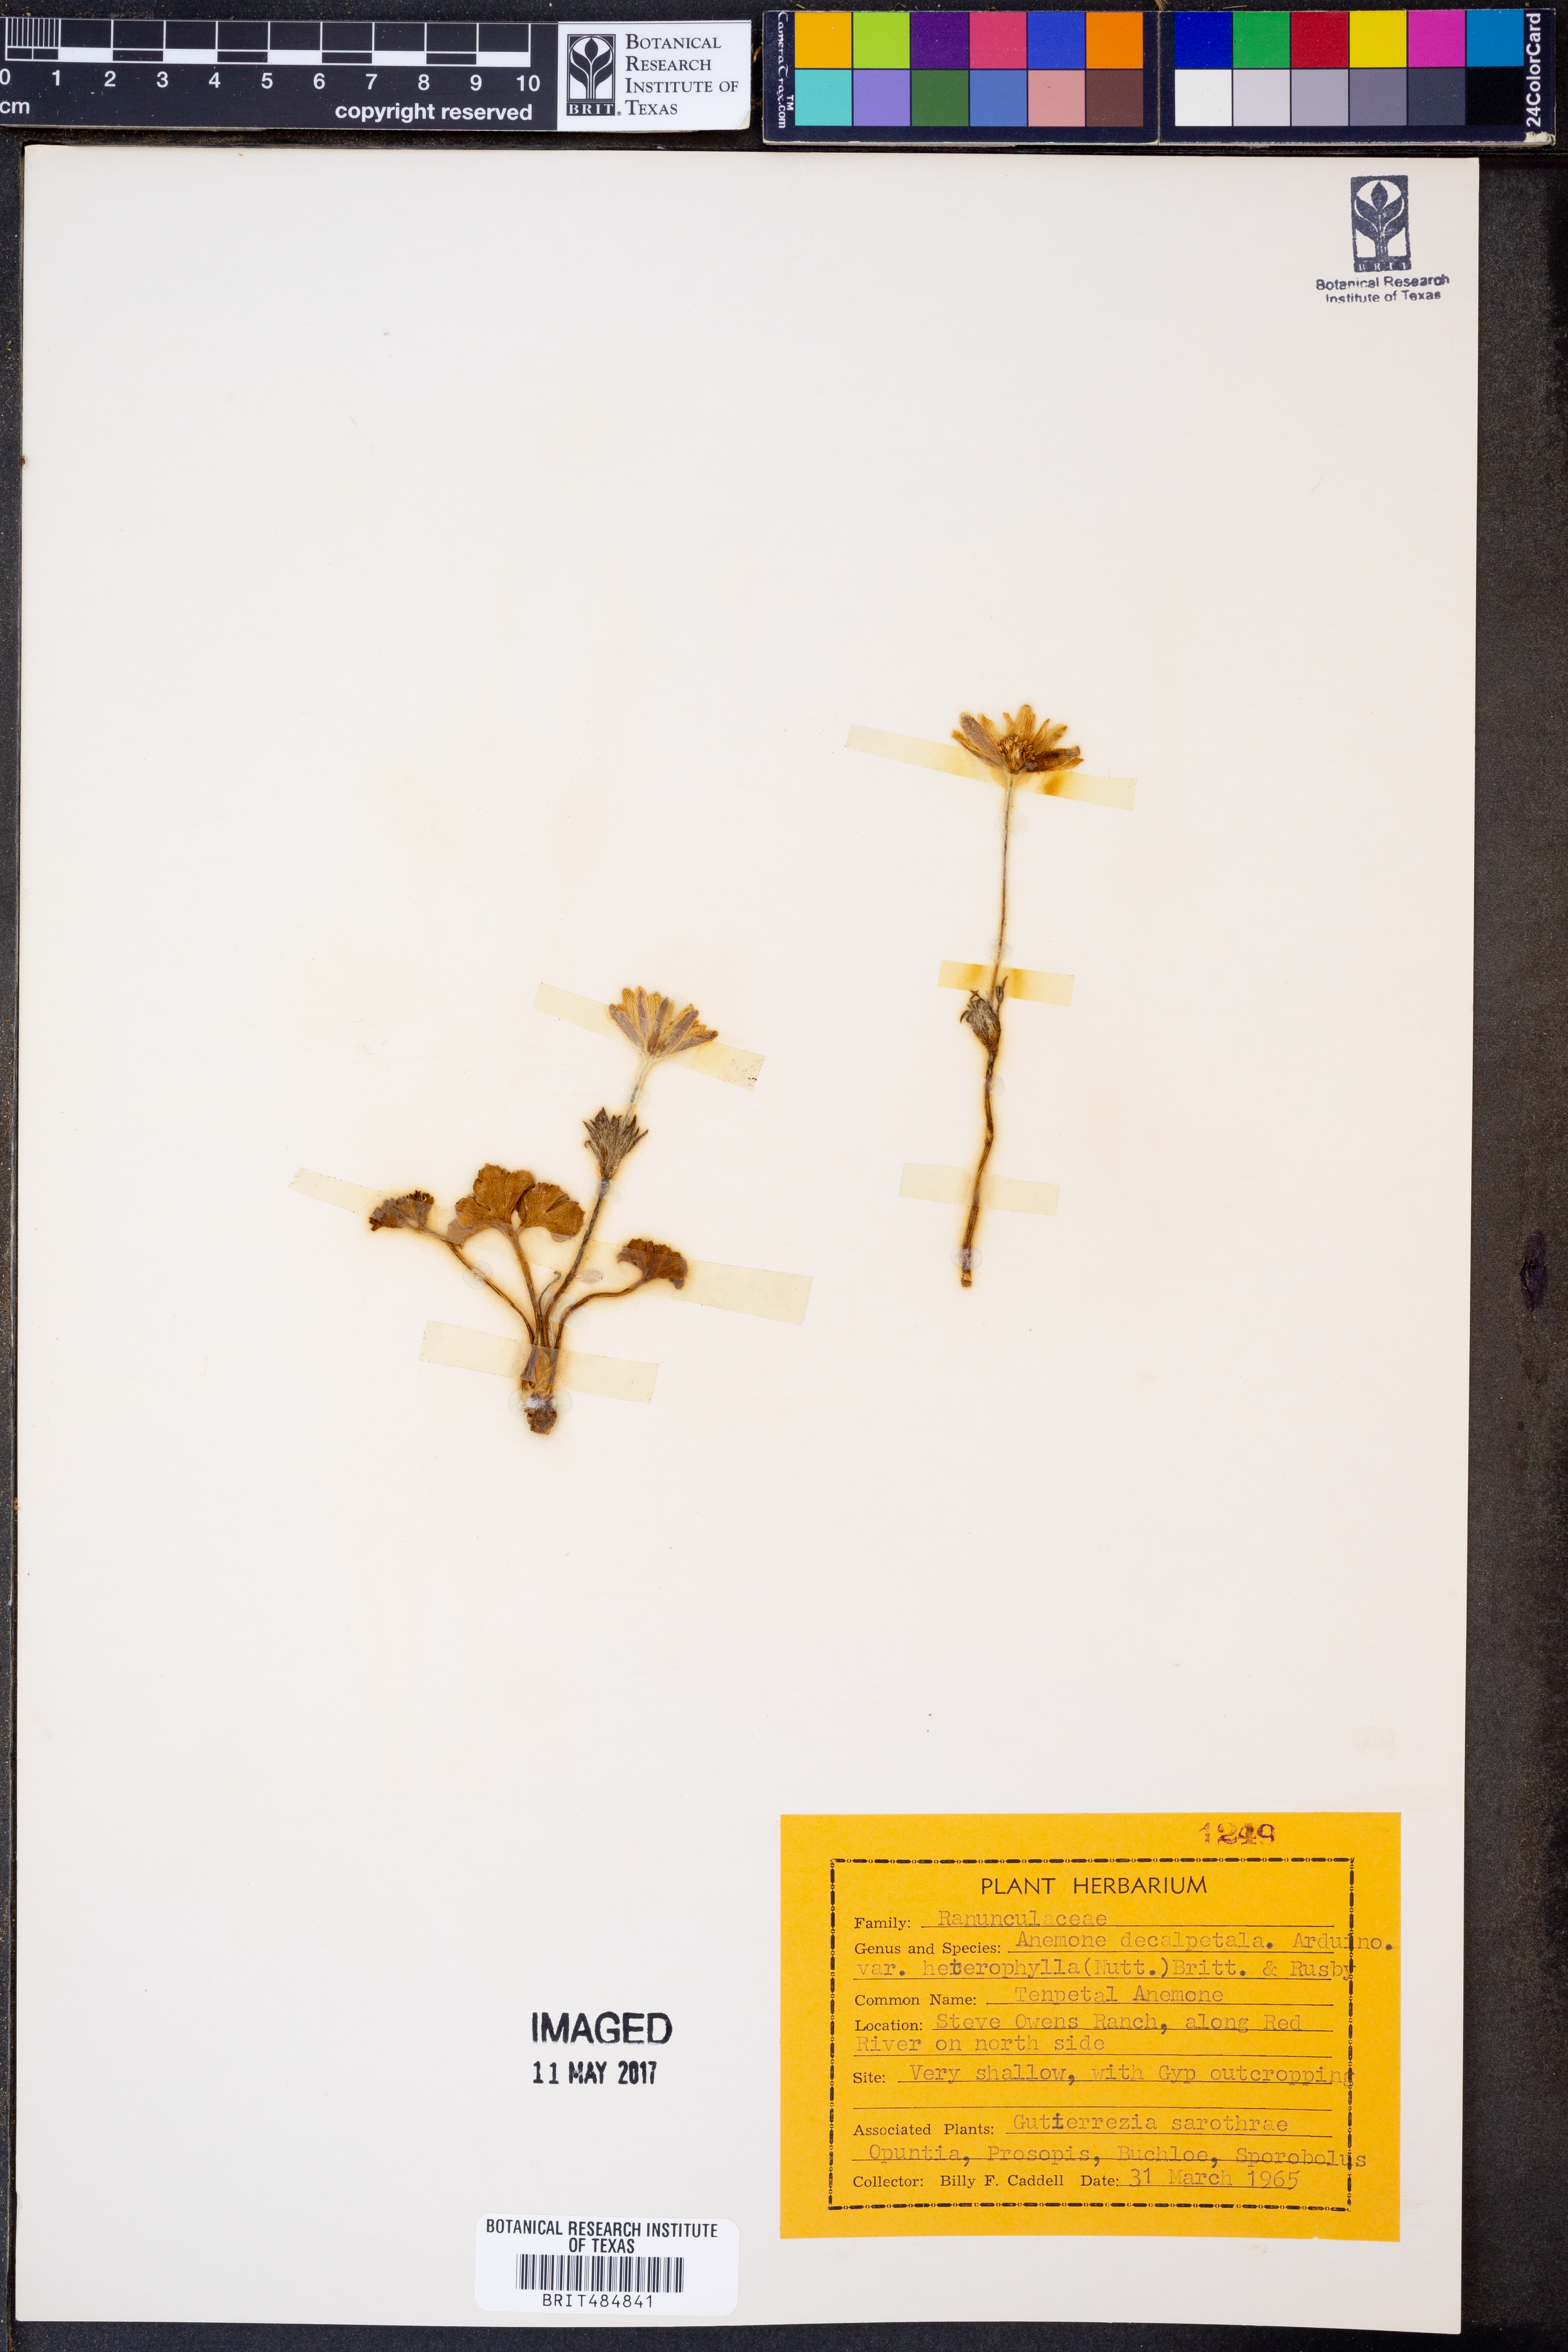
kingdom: Plantae
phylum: Tracheophyta
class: Magnoliopsida
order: Ranunculales
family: Ranunculaceae
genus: Anemone
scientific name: Anemone berlandieri
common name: Ten-petal anemone
